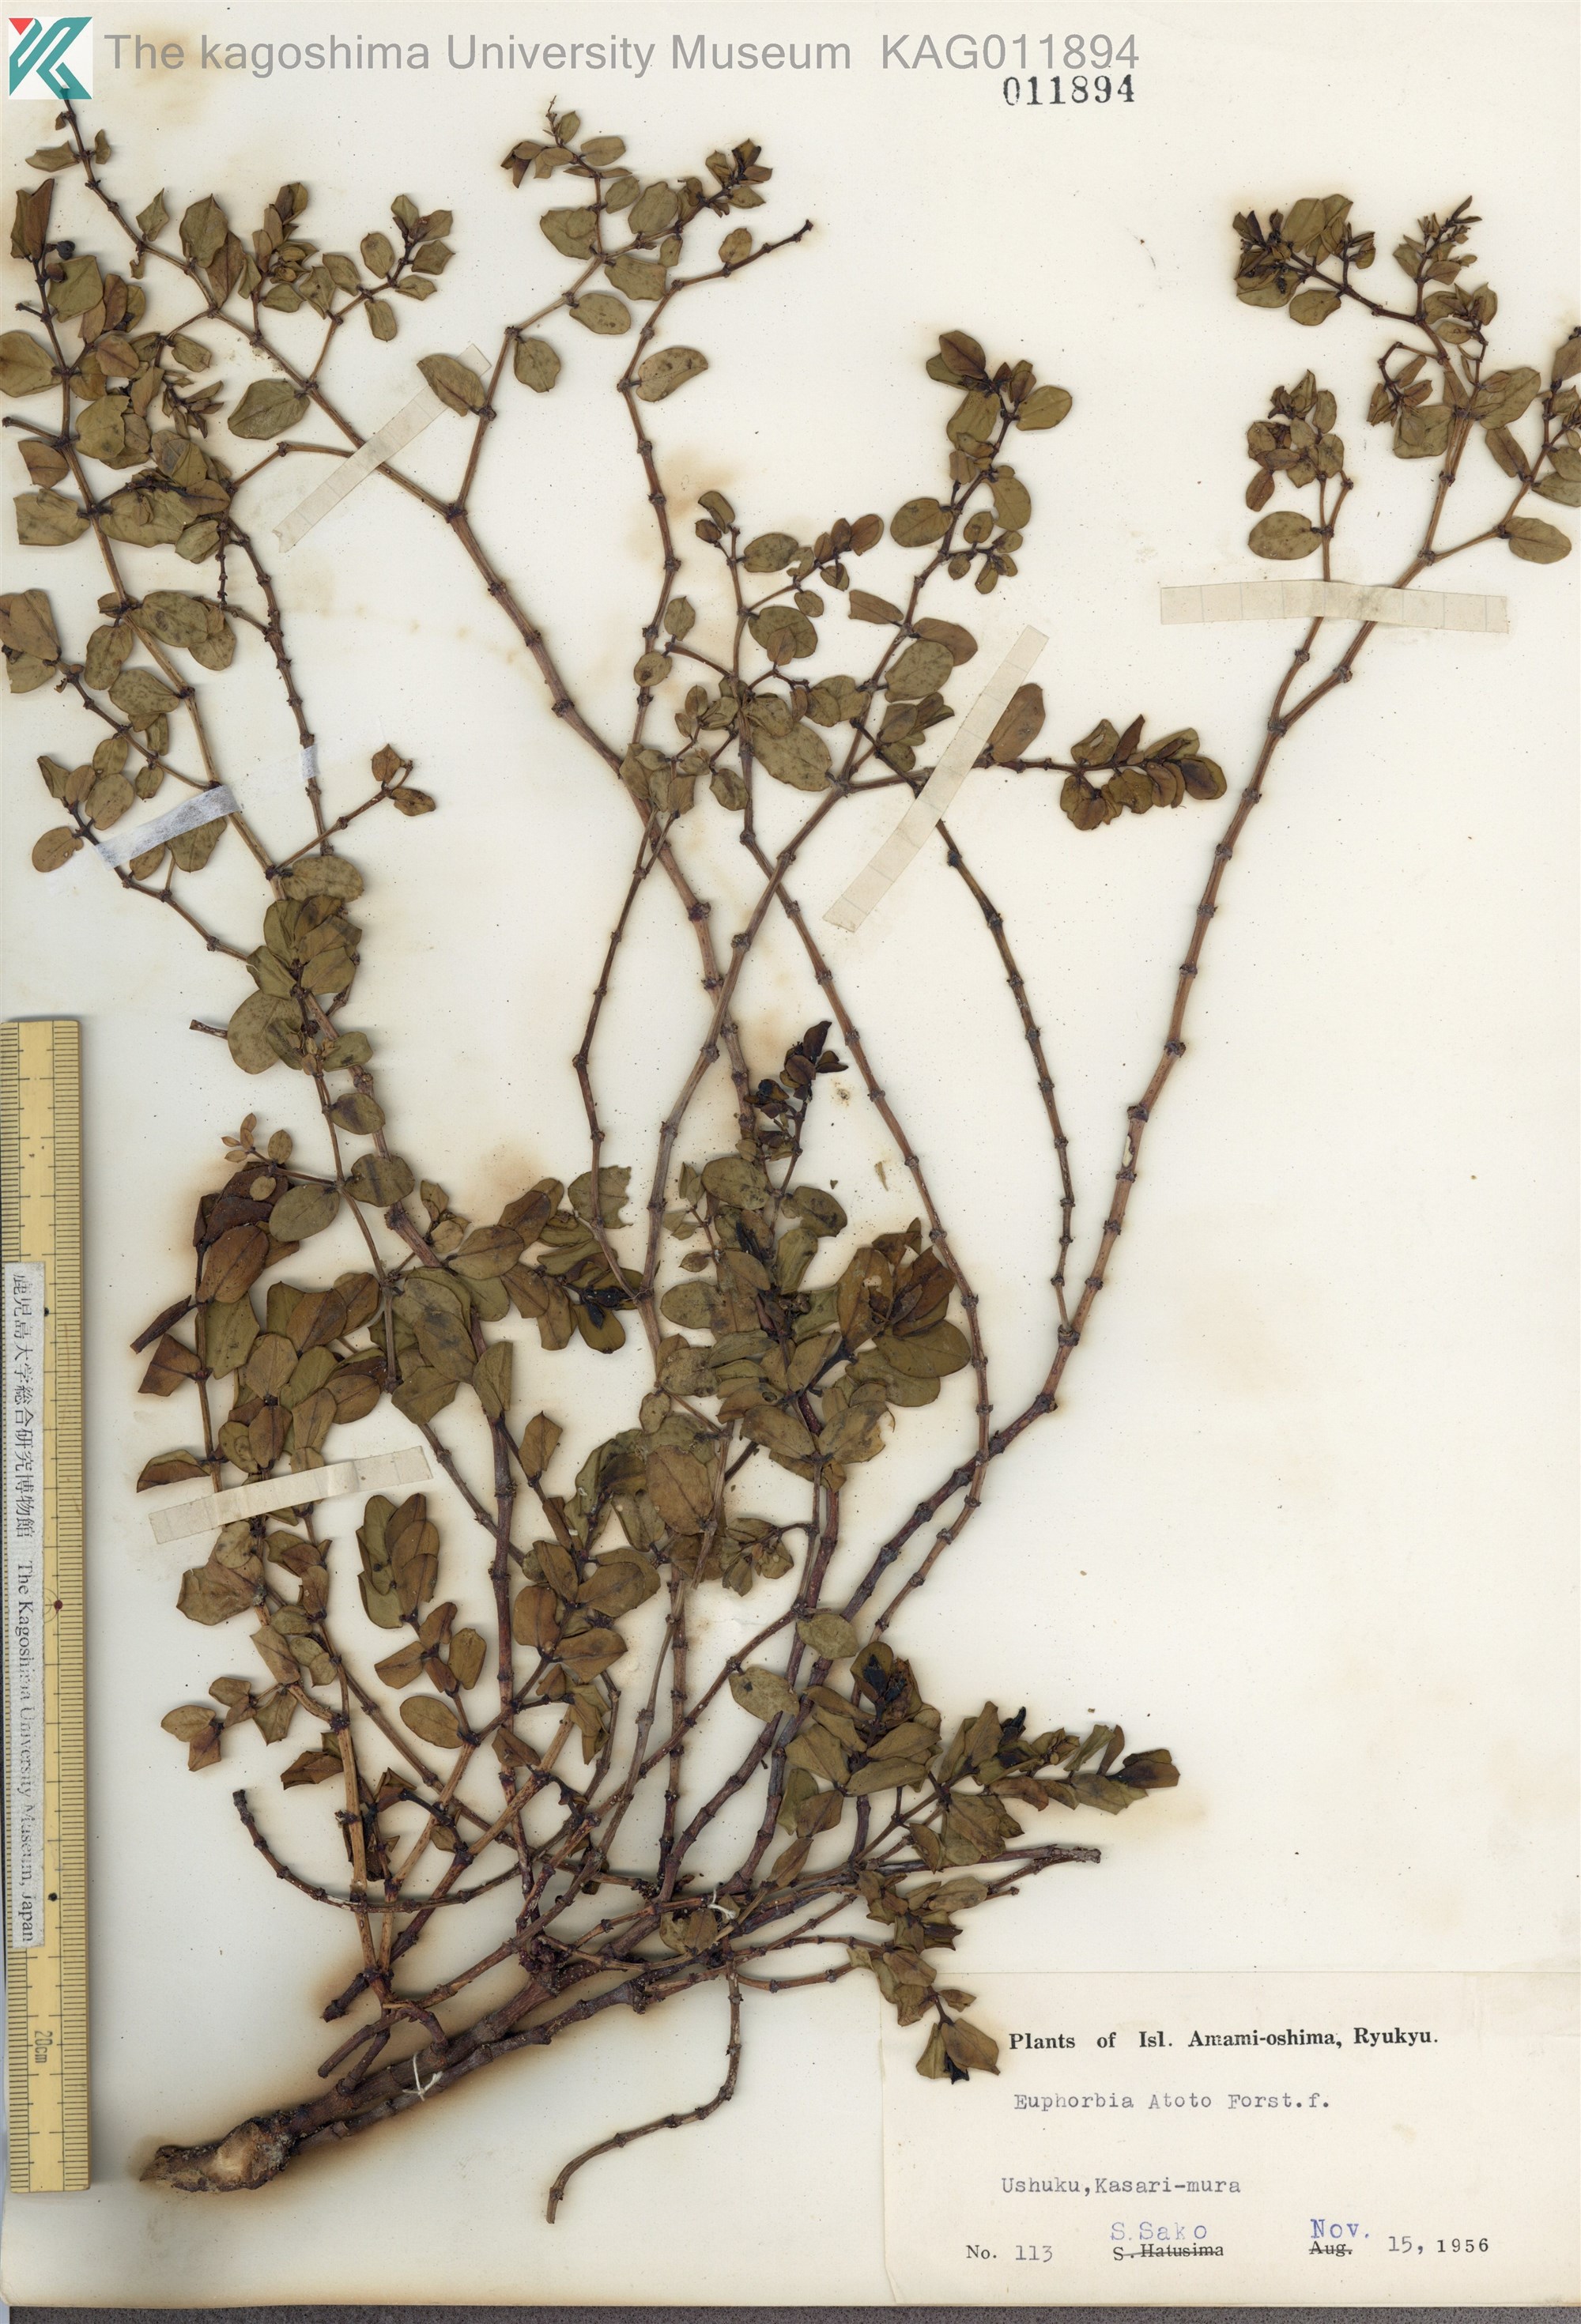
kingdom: Plantae
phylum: Tracheophyta
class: Magnoliopsida
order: Malpighiales
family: Euphorbiaceae
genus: Euphorbia
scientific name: Euphorbia chamissonis
